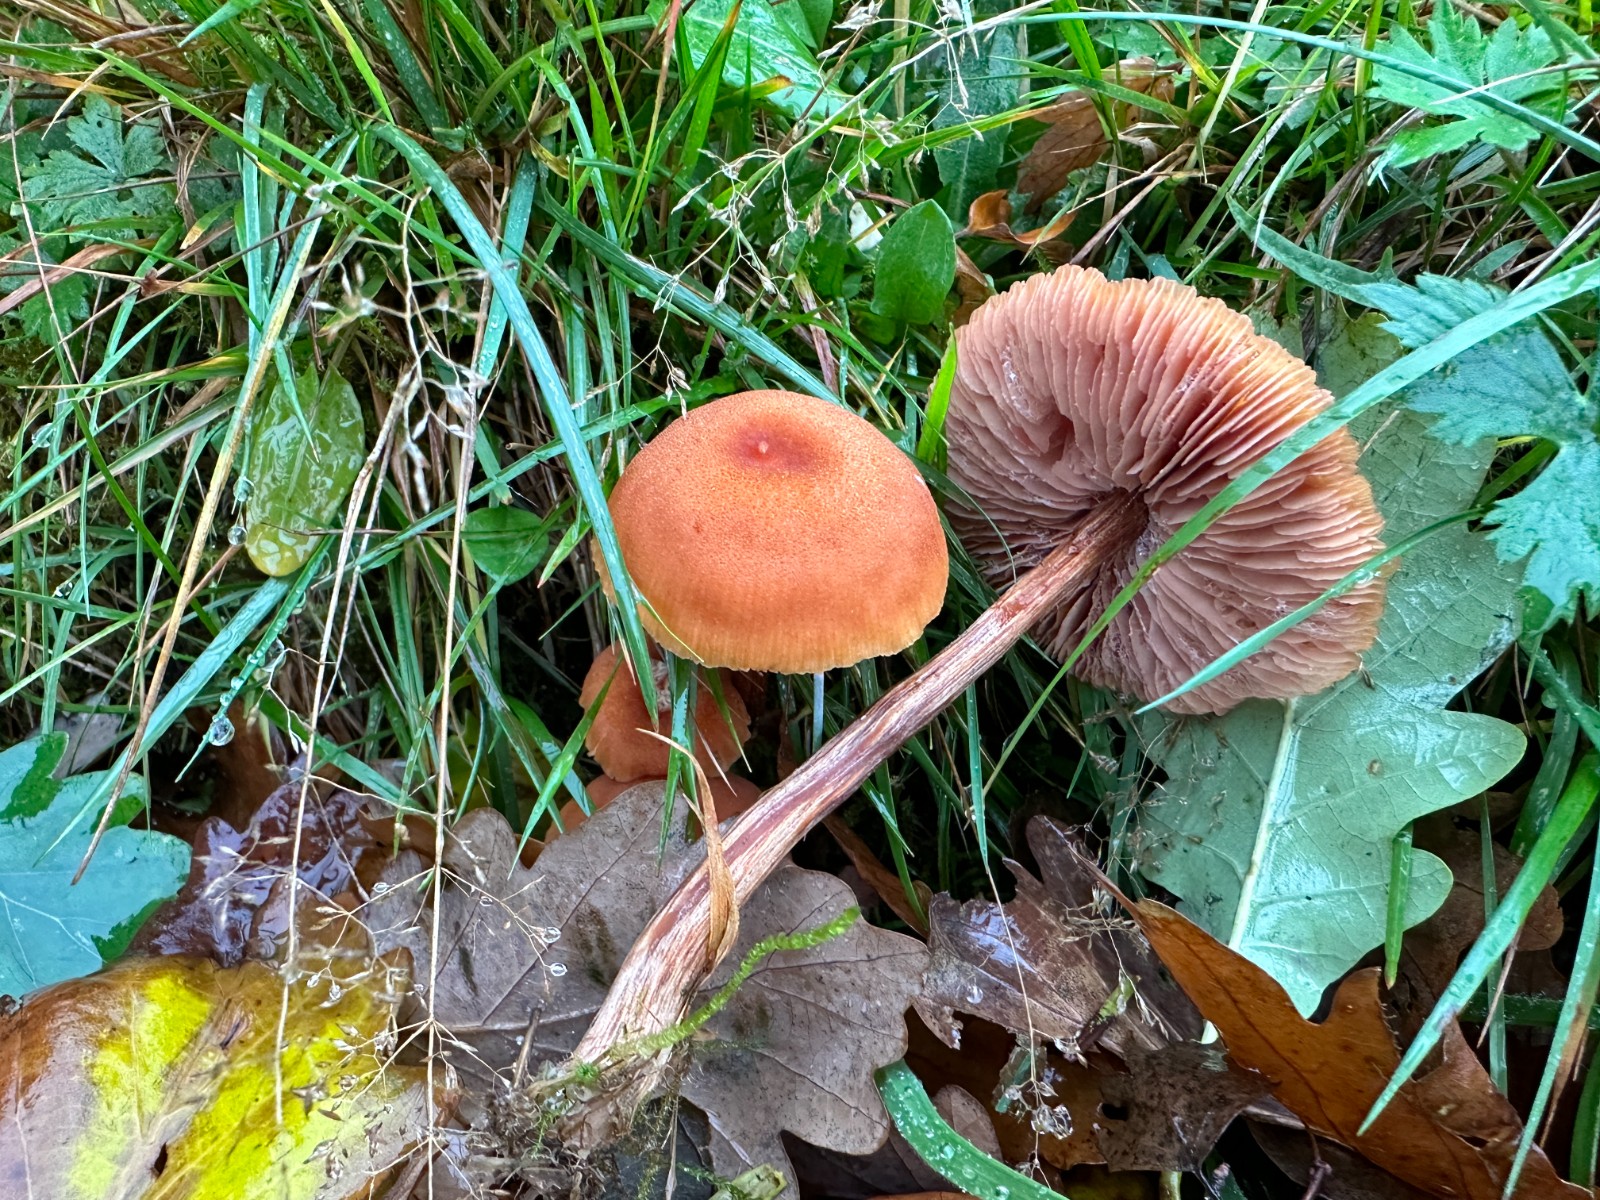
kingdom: Fungi
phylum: Basidiomycota
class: Agaricomycetes
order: Agaricales
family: Hydnangiaceae
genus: Laccaria
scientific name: Laccaria proxima
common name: stor ametysthat
